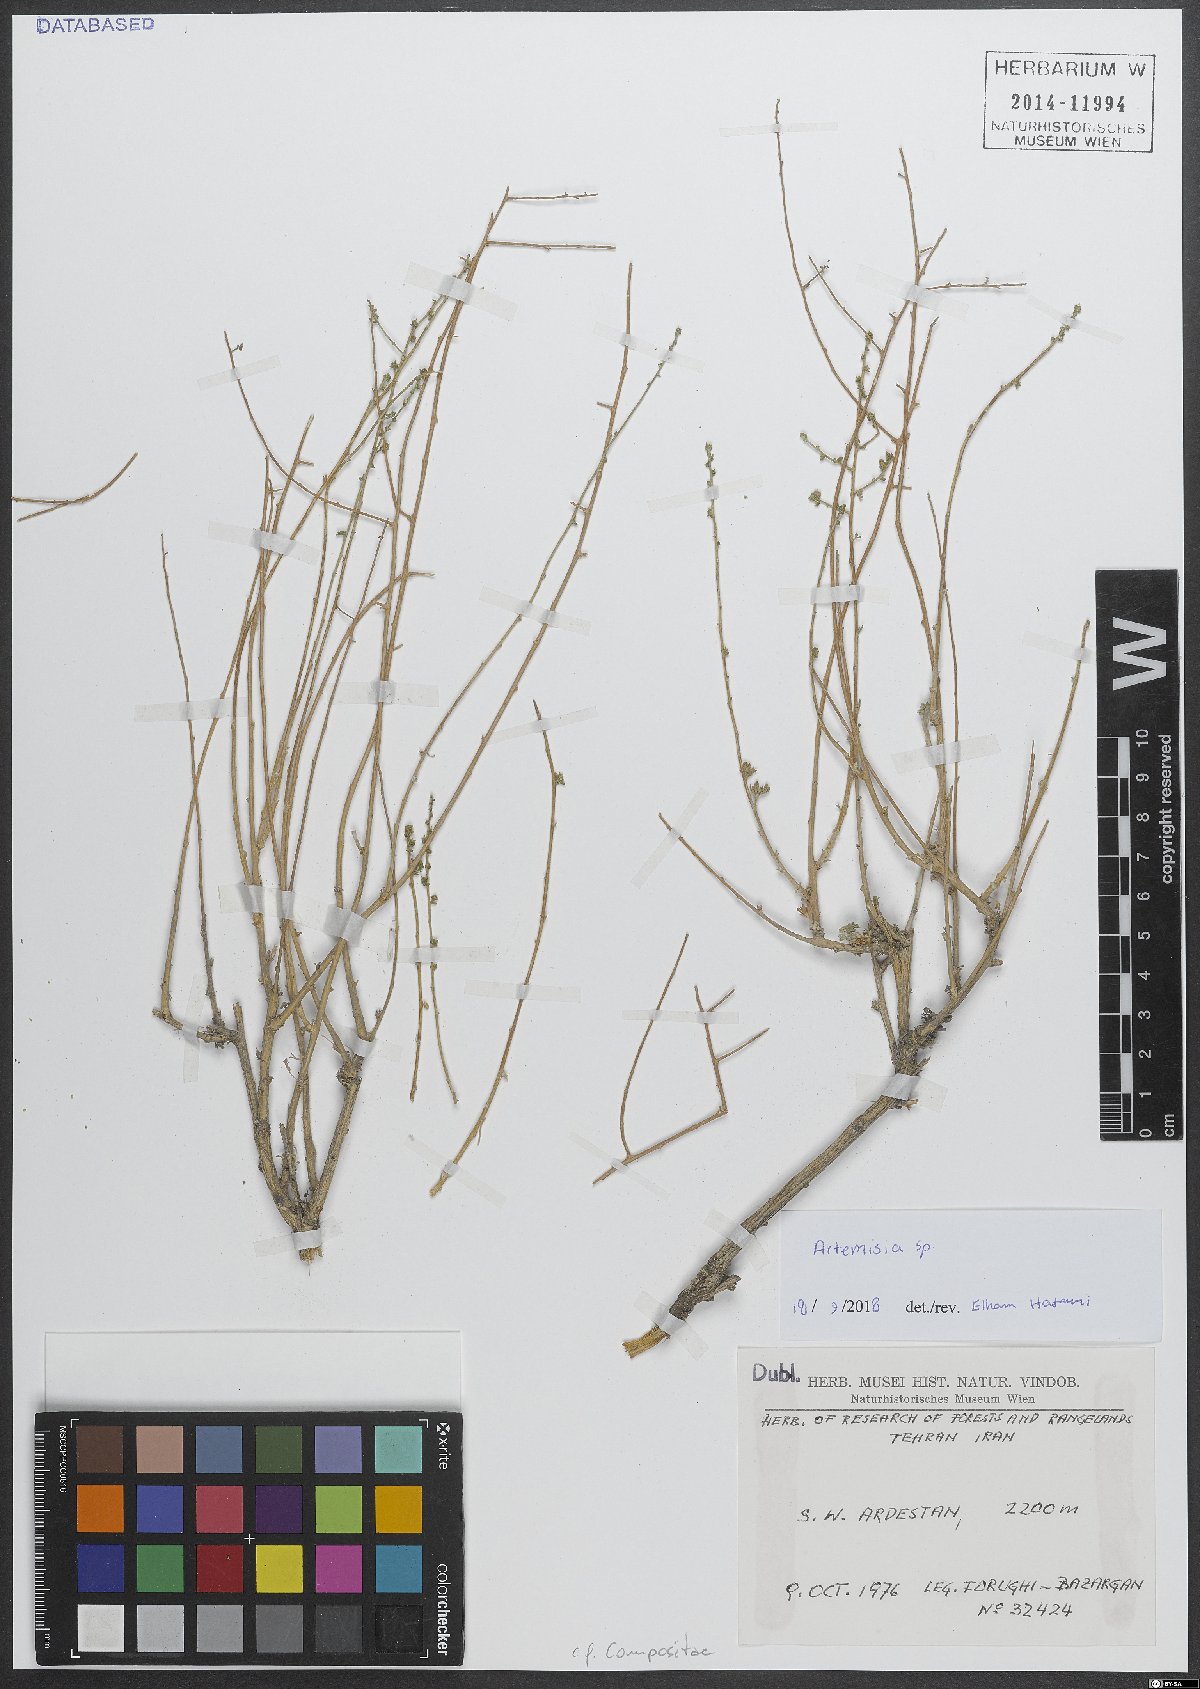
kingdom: Plantae
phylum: Tracheophyta
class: Magnoliopsida
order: Asterales
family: Asteraceae
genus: Artemisia
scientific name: Artemisia
